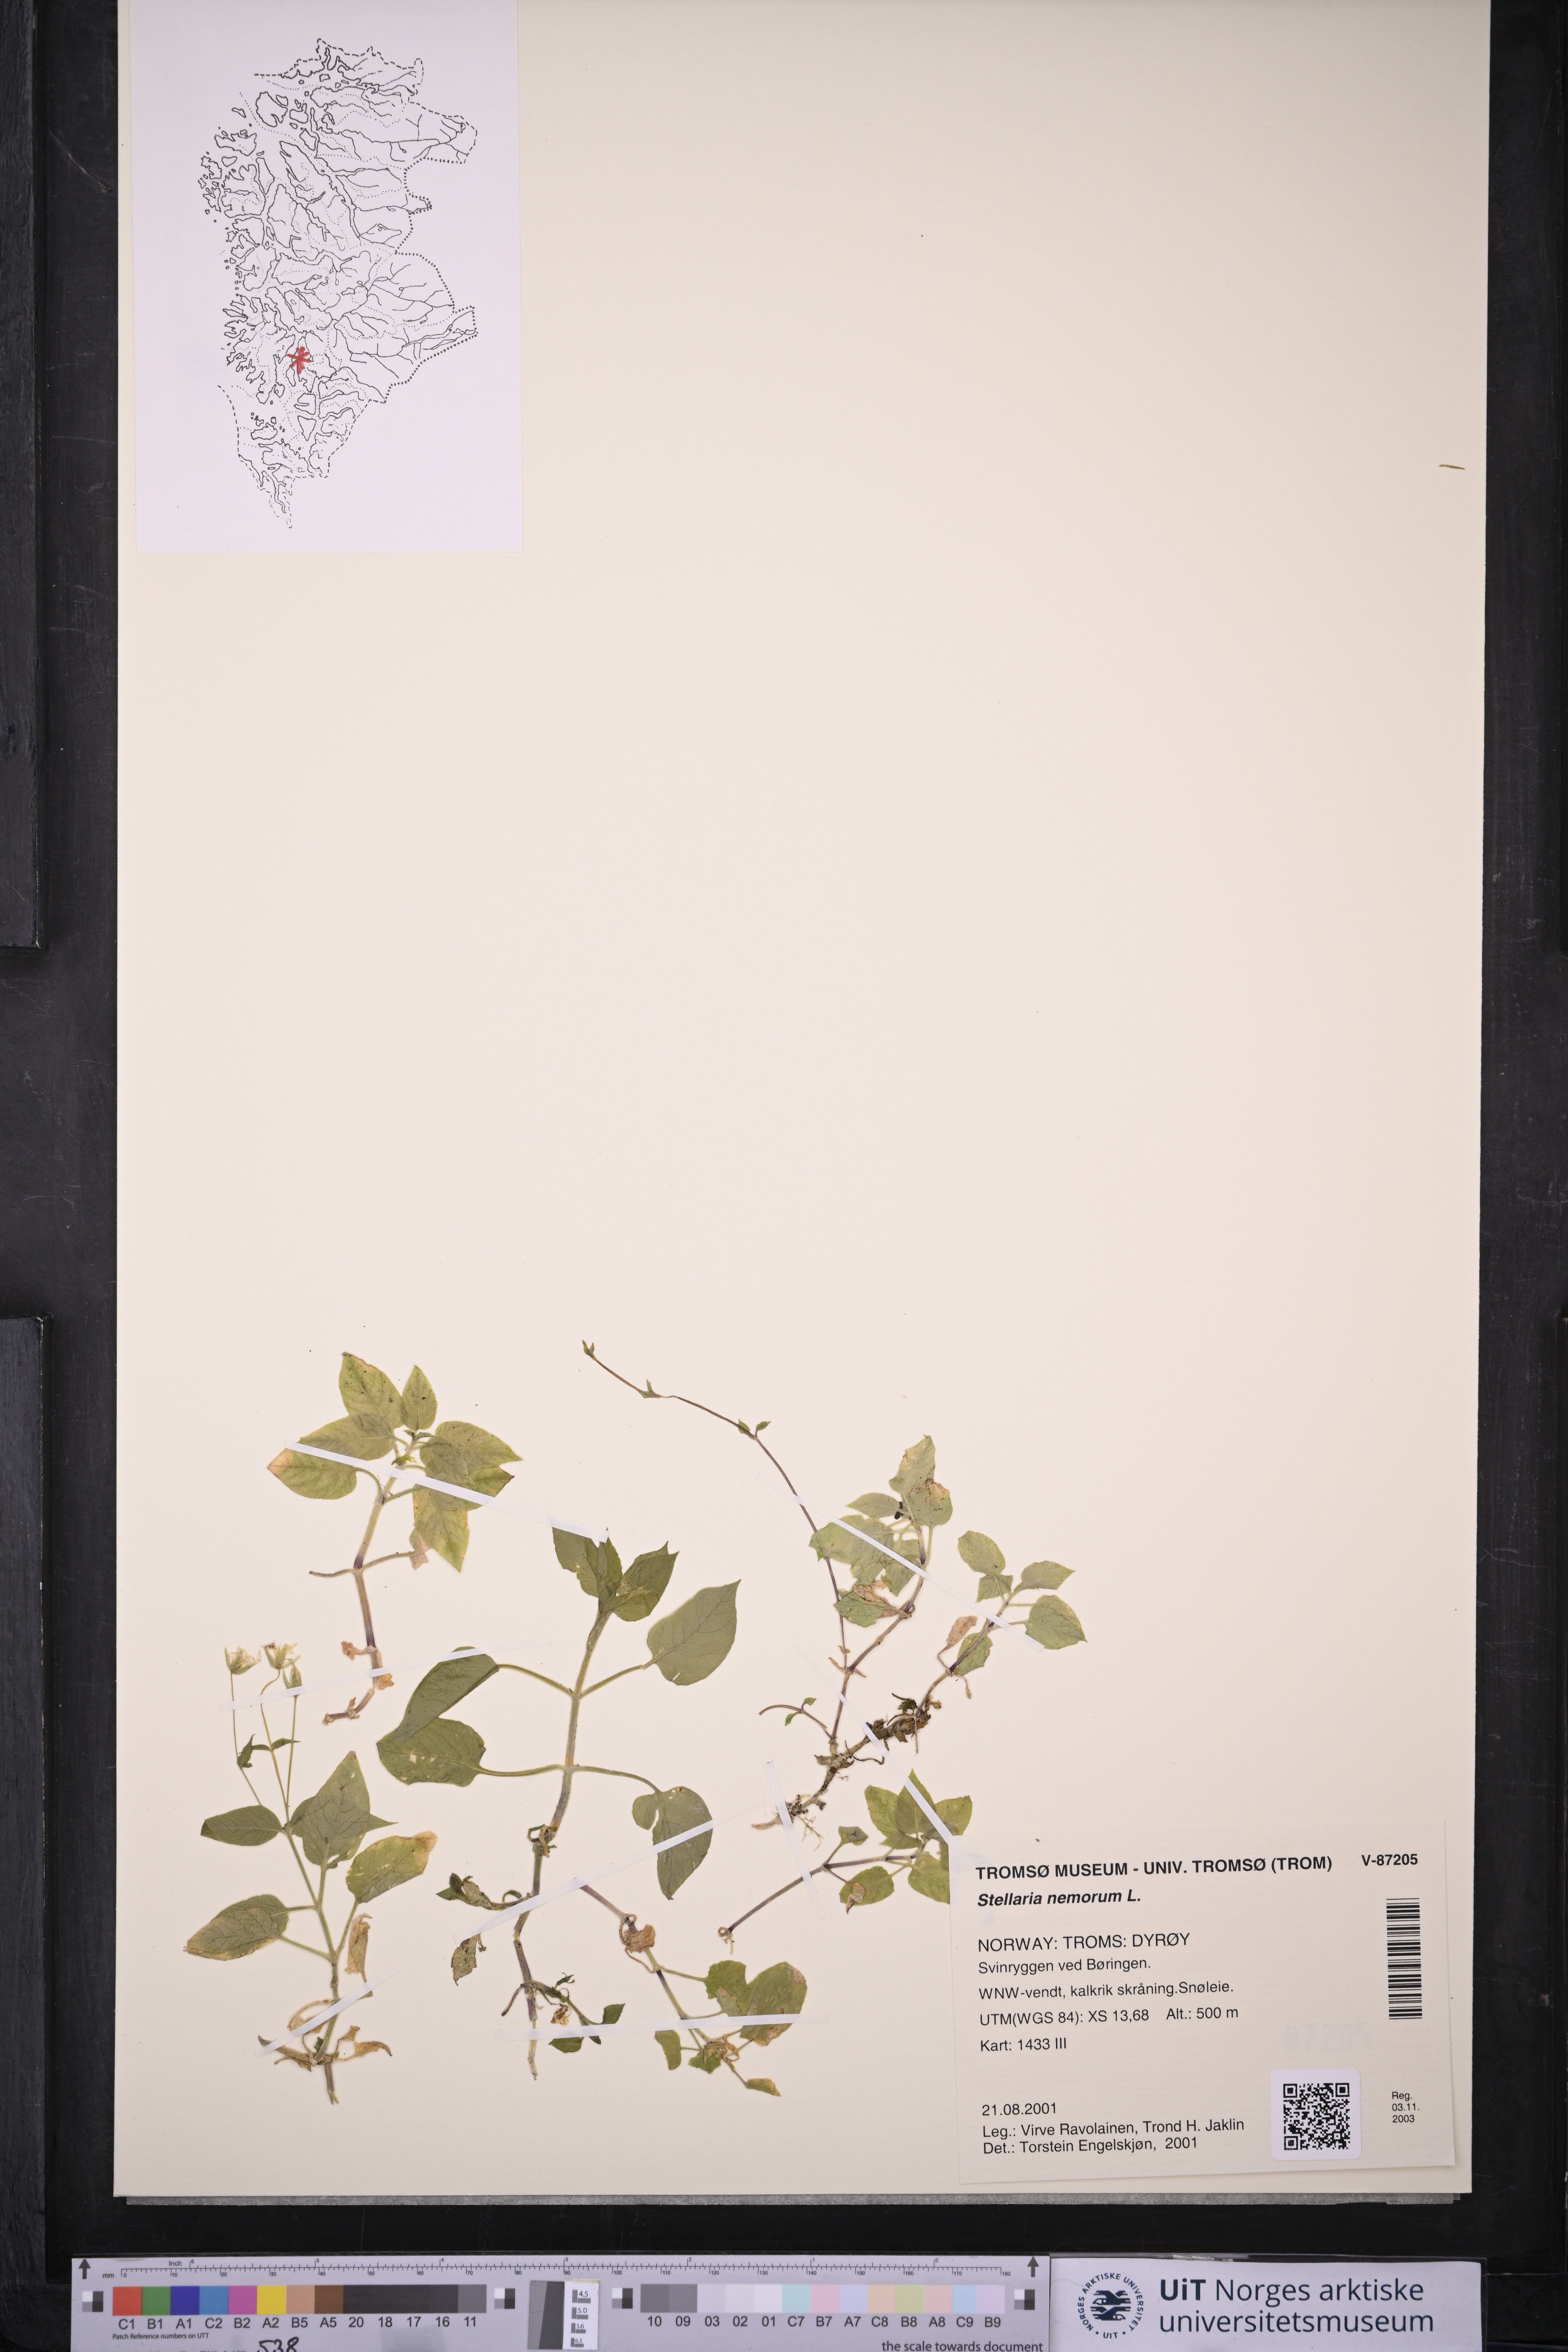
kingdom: Plantae
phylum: Tracheophyta
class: Magnoliopsida
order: Caryophyllales
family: Caryophyllaceae
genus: Stellaria
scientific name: Stellaria nemorum
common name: Wood stitchwort
